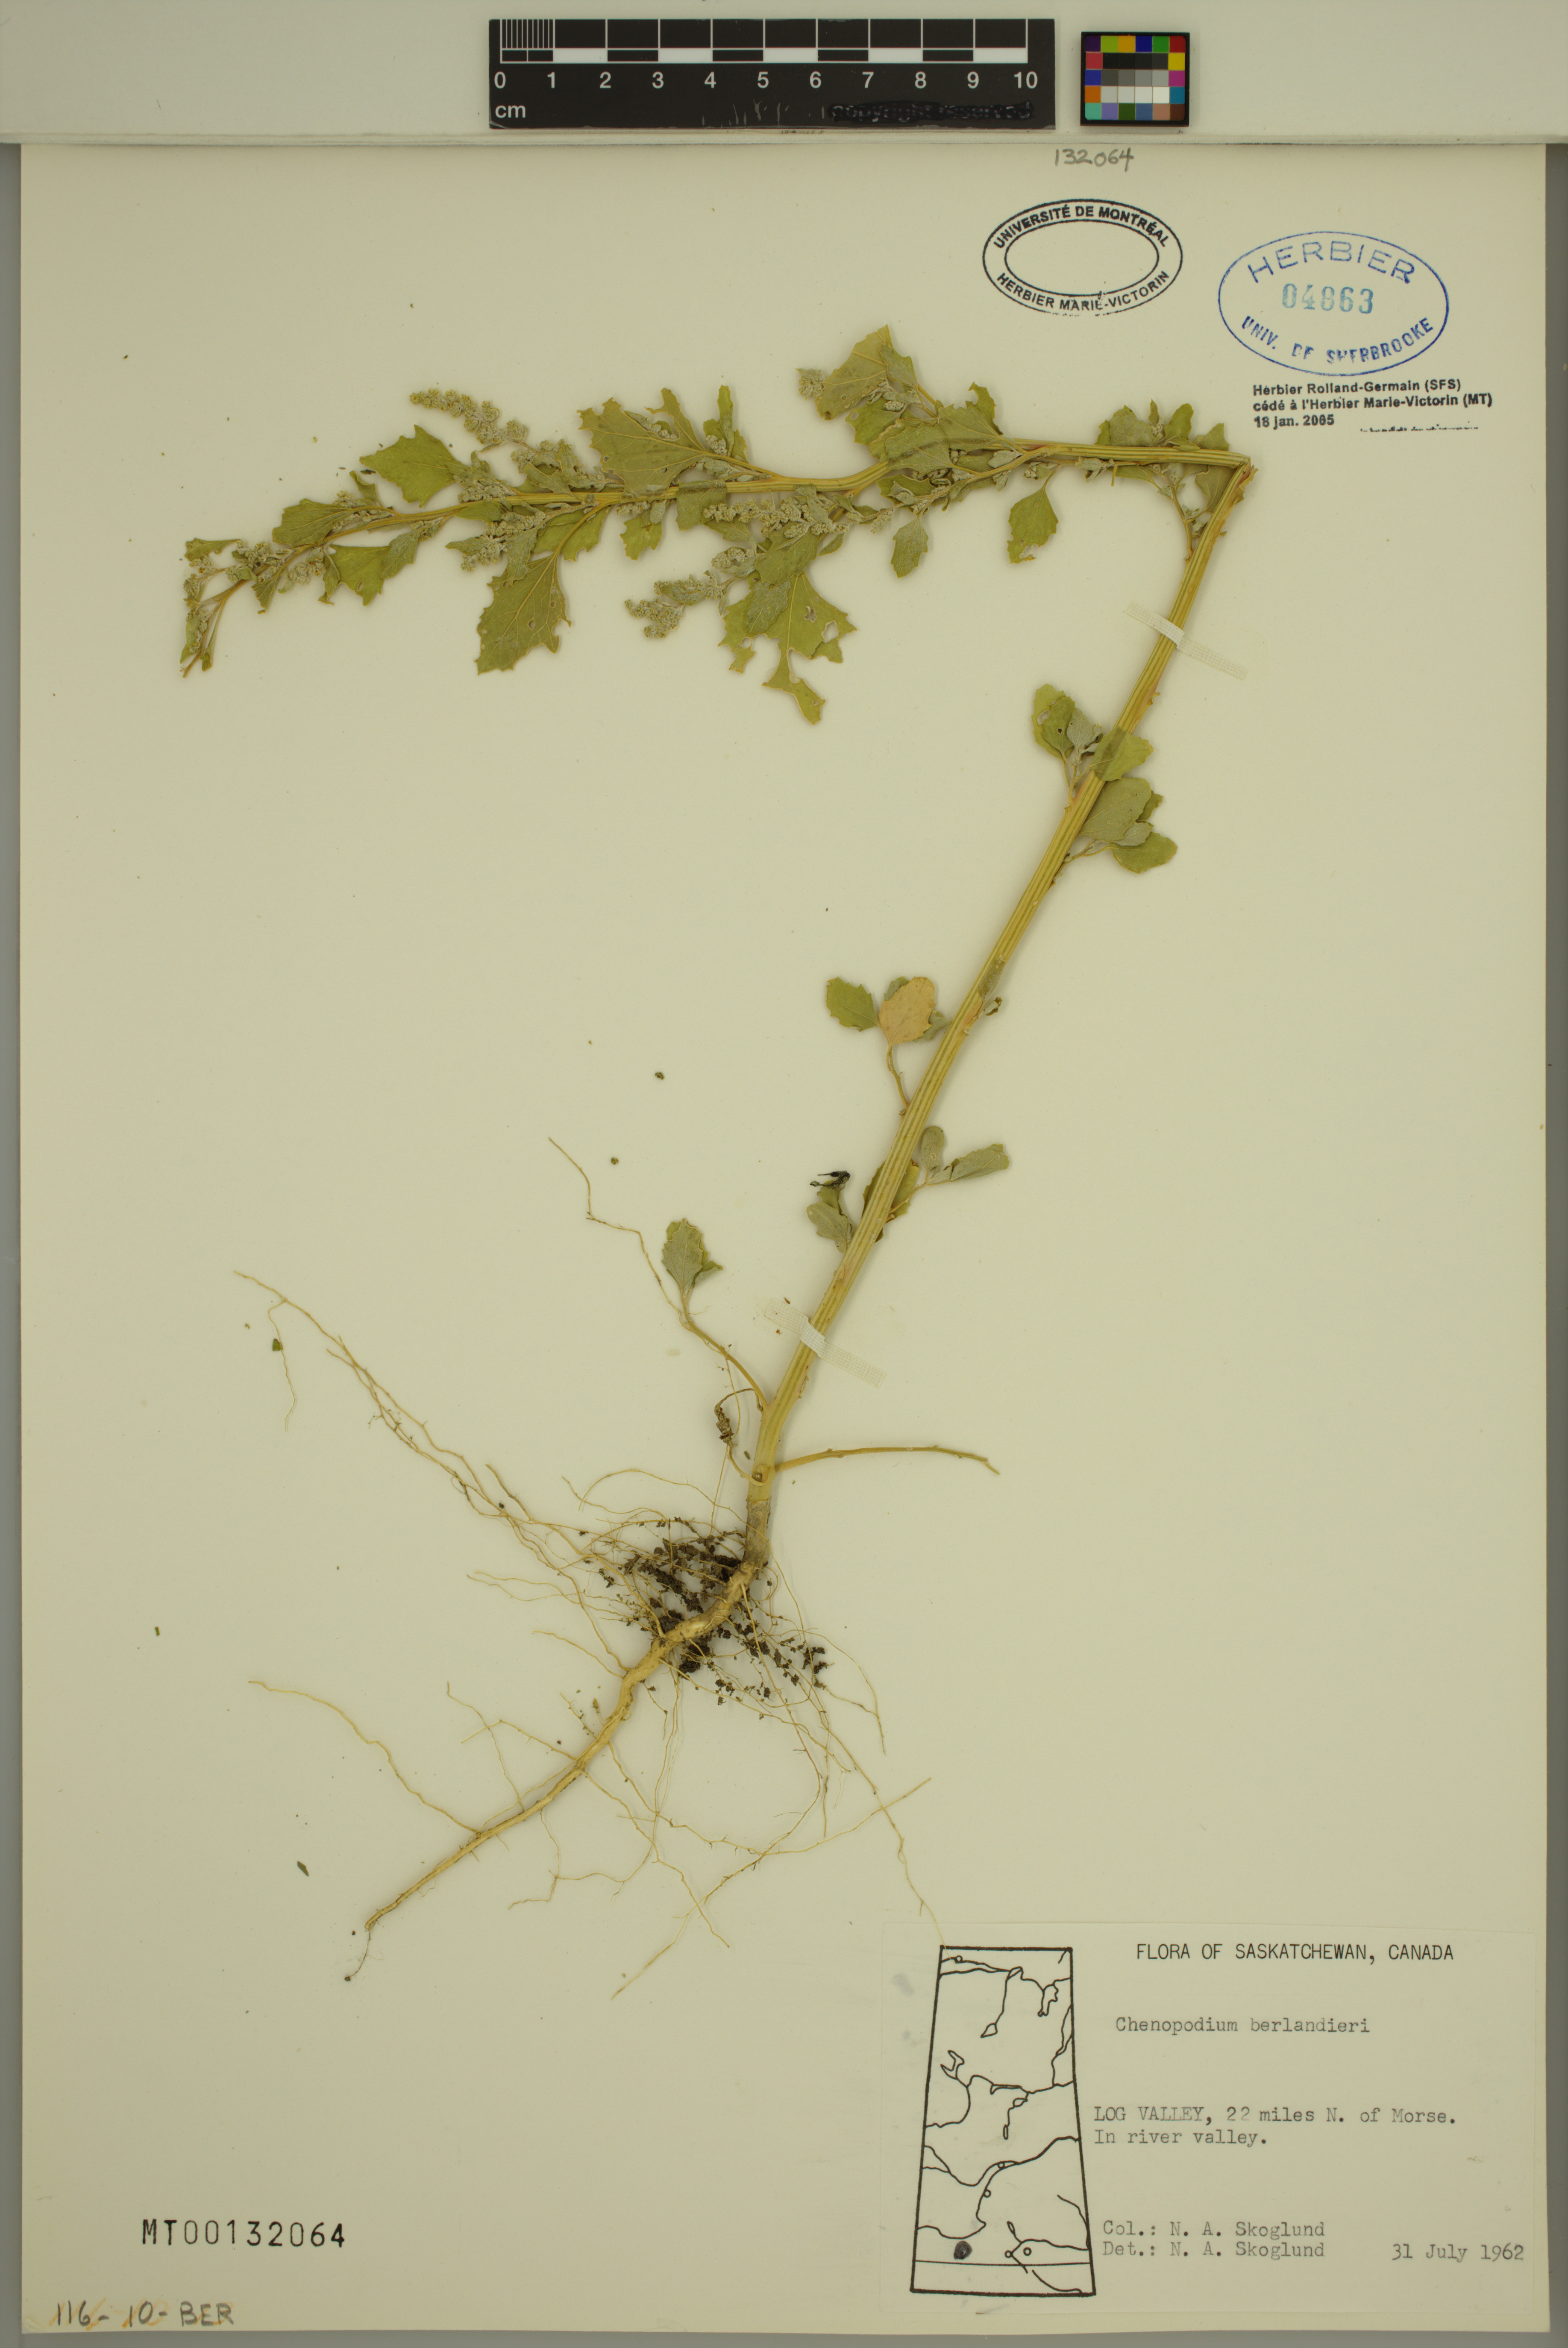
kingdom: Plantae
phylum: Tracheophyta
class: Magnoliopsida
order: Caryophyllales
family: Amaranthaceae
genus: Chenopodium
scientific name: Chenopodium berlandieri
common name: Pit-seed goosefoot
